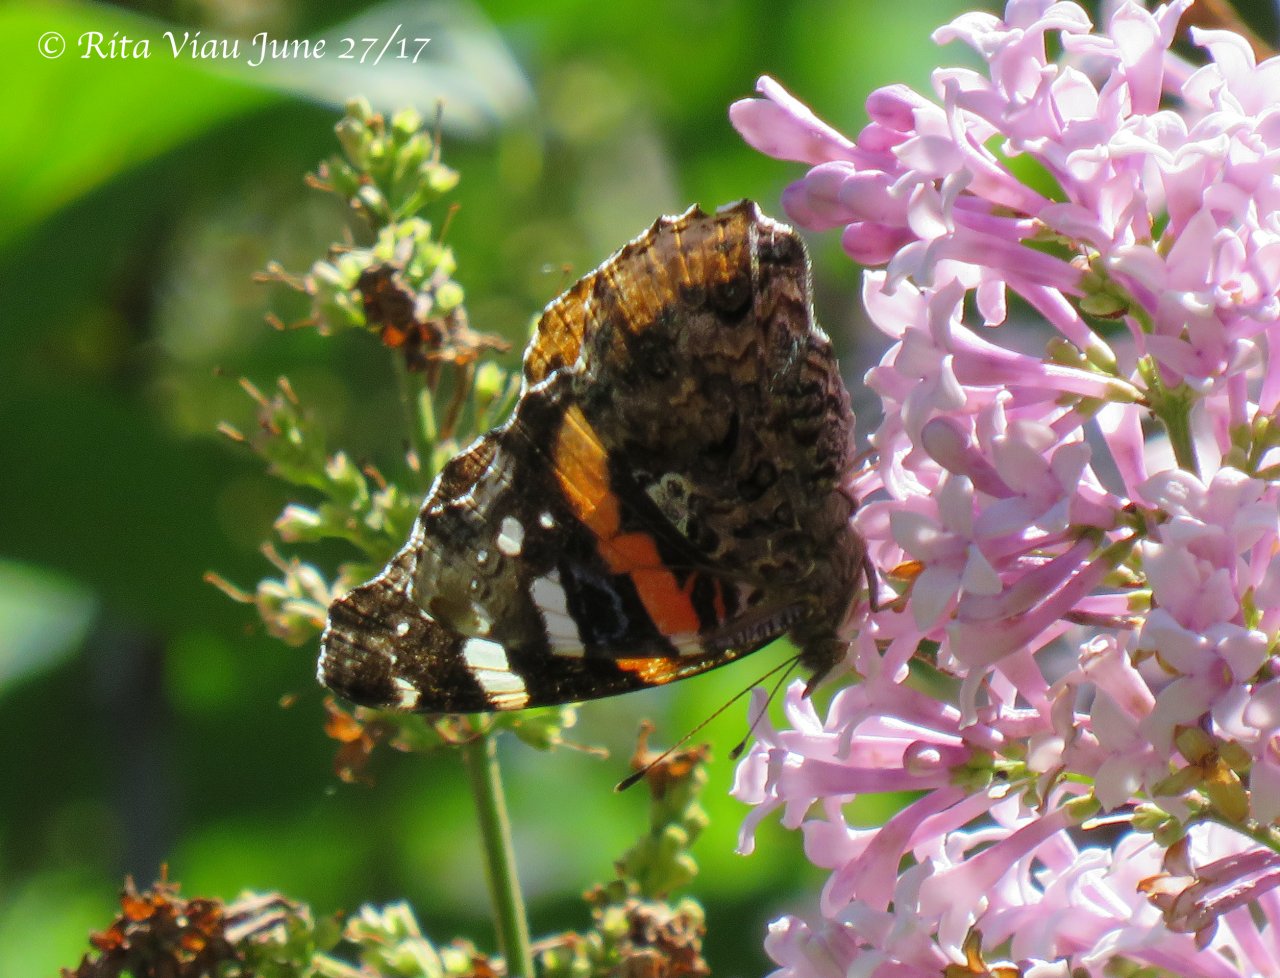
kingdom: Animalia
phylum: Arthropoda
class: Insecta
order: Lepidoptera
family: Nymphalidae
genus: Vanessa
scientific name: Vanessa atalanta
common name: Red Admiral
